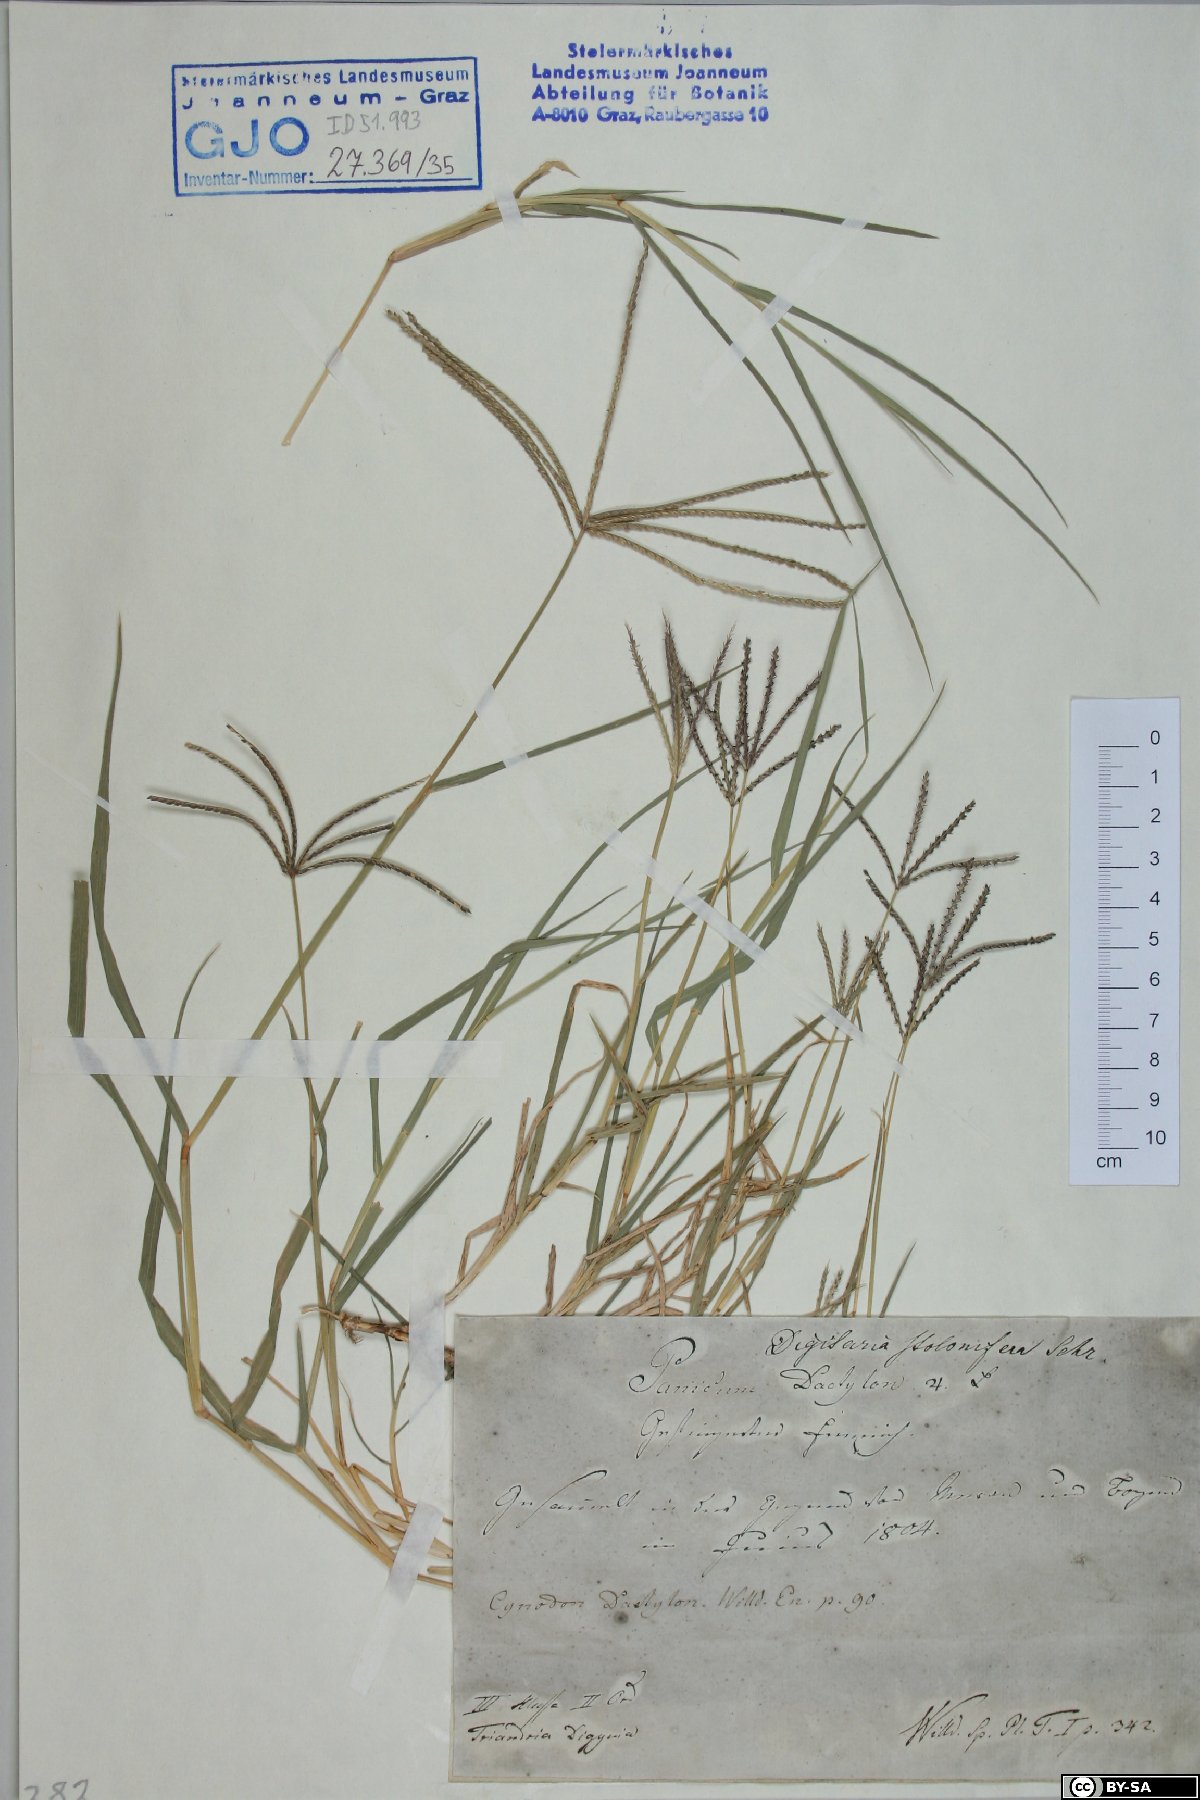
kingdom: Plantae
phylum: Tracheophyta
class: Liliopsida
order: Poales
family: Poaceae
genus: Cynodon
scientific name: Cynodon dactylon
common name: Bermuda grass
